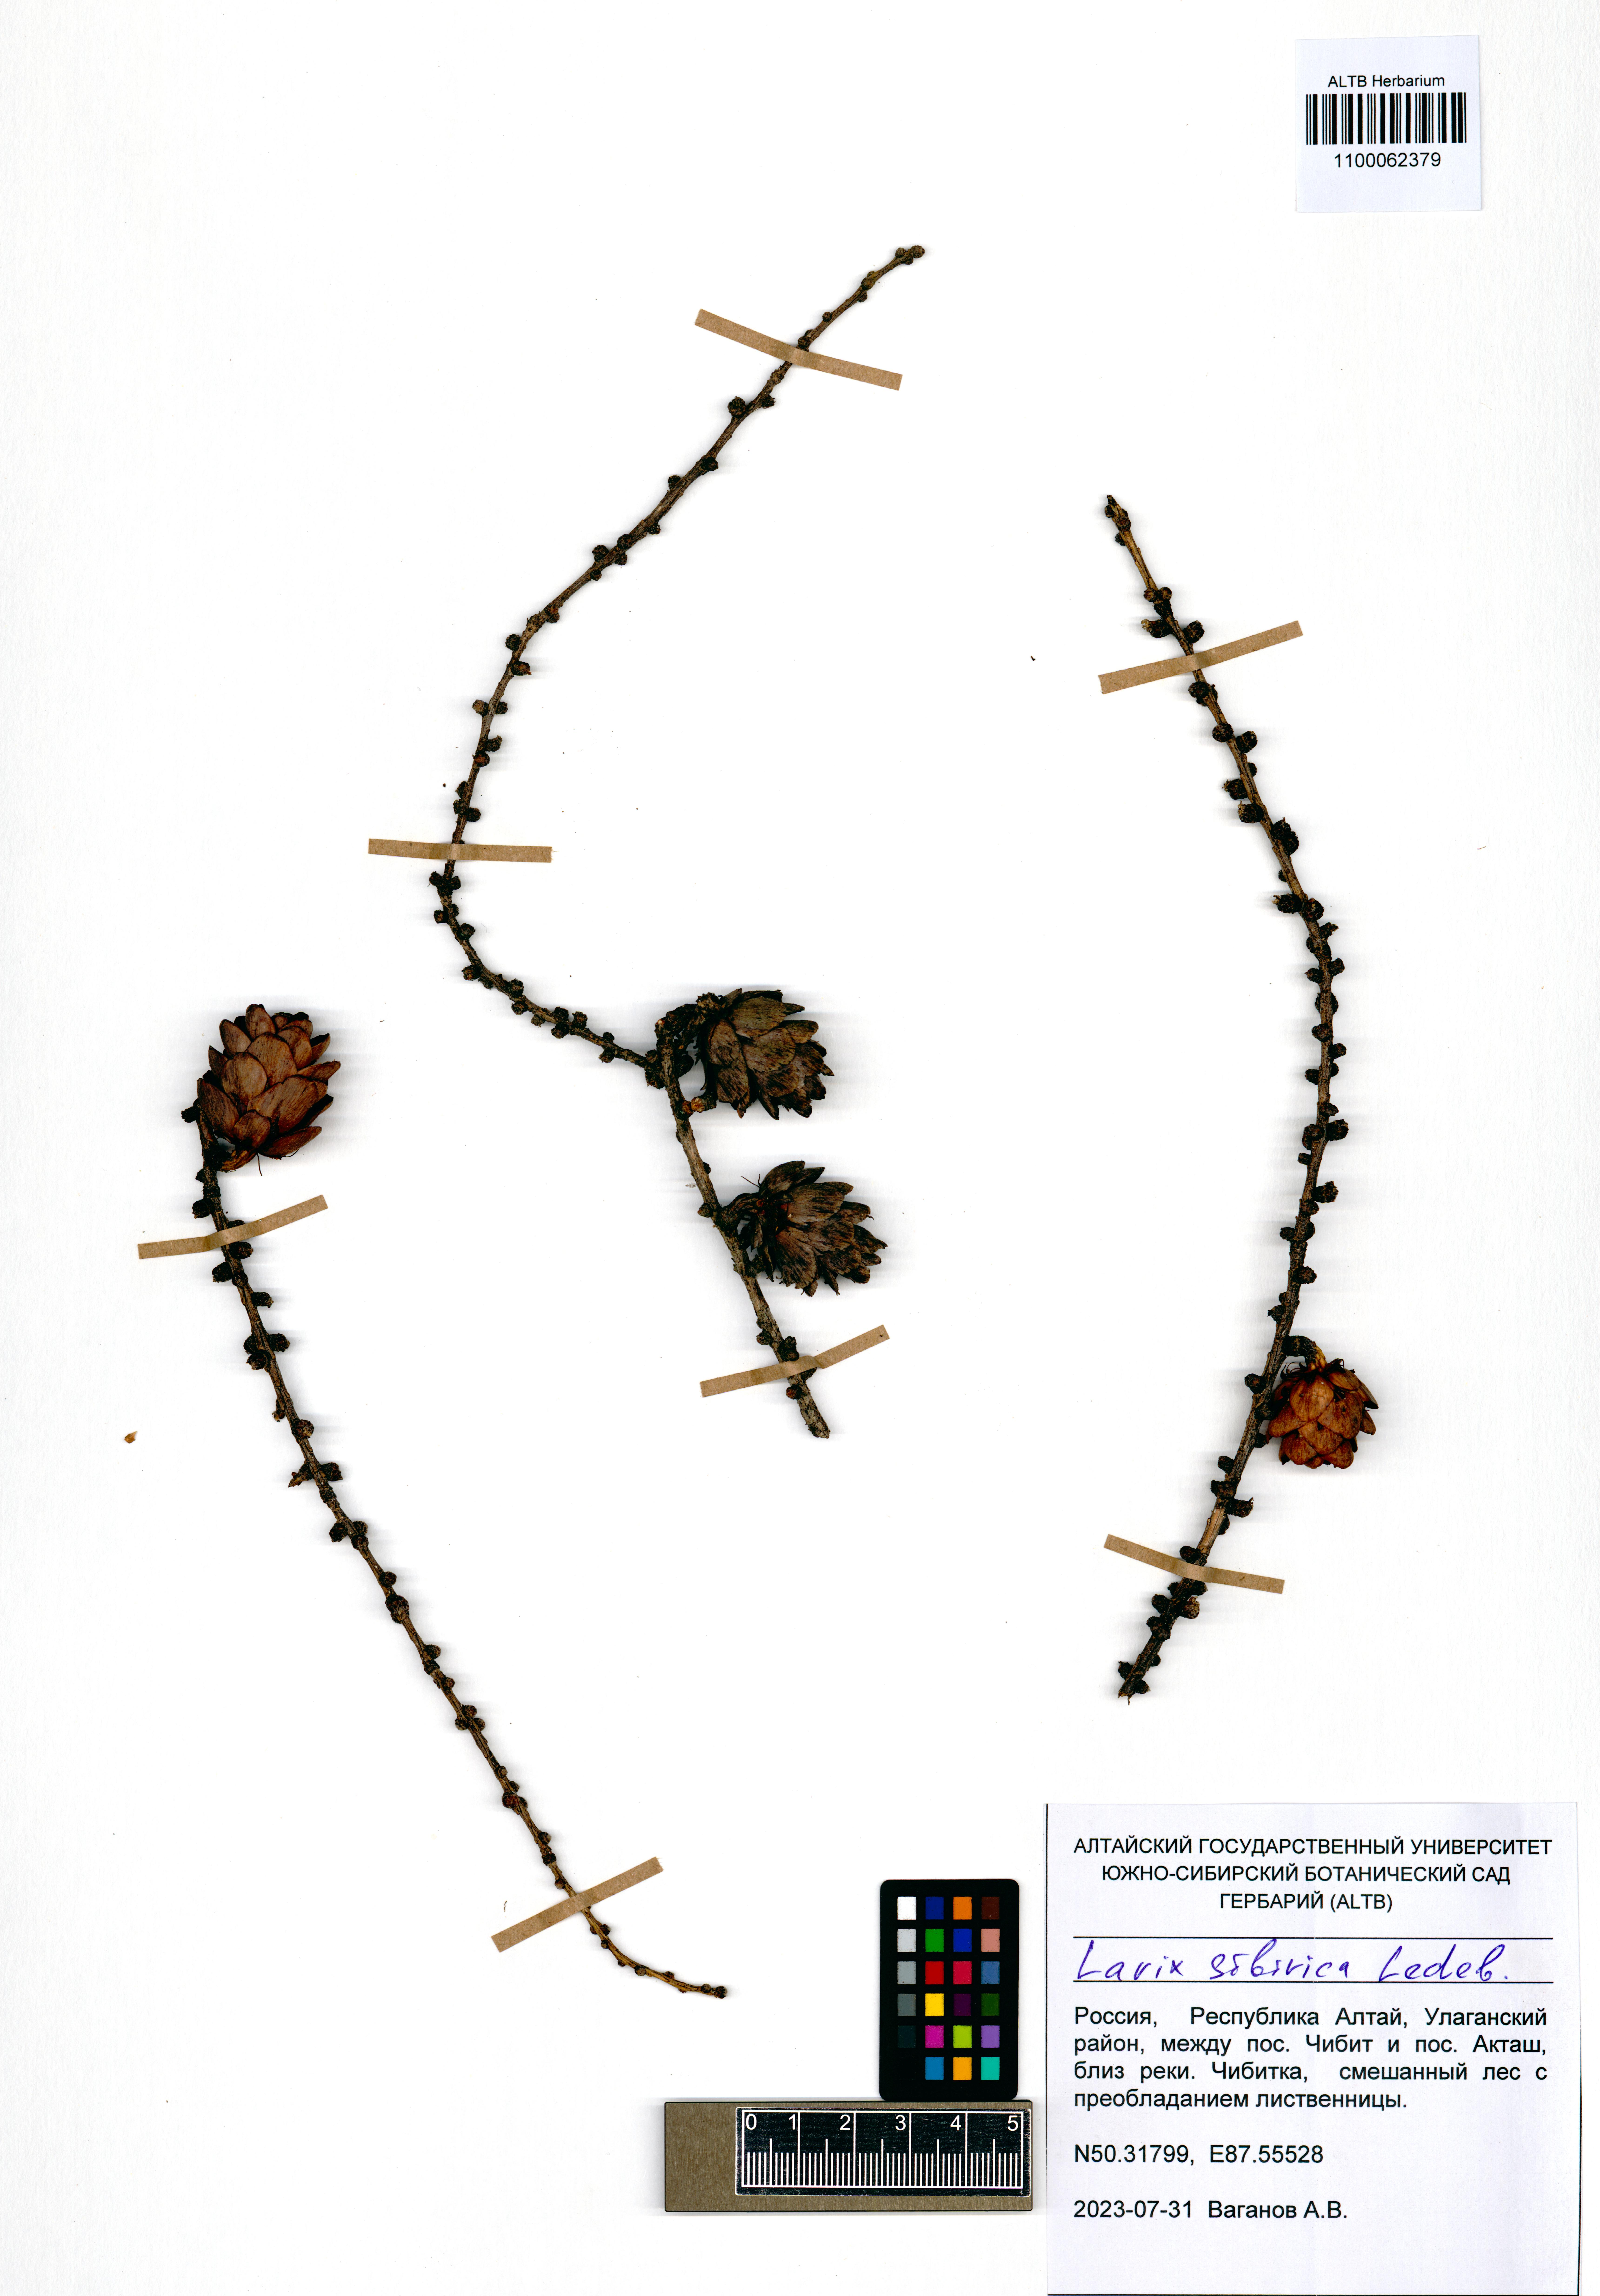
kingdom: Plantae
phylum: Tracheophyta
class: Pinopsida
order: Pinales
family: Pinaceae
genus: Larix
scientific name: Larix sibirica
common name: Siberian larch
